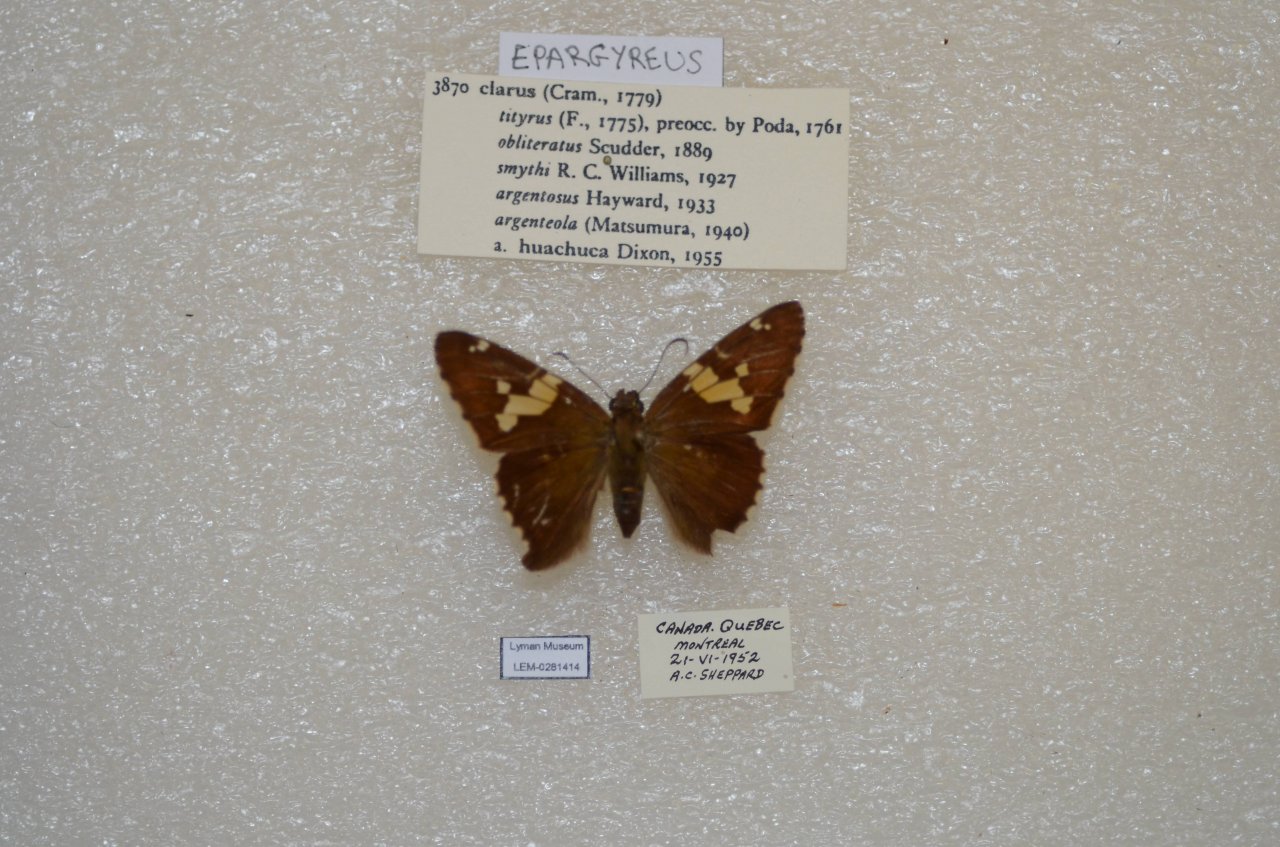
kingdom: Animalia
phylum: Arthropoda
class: Insecta
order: Lepidoptera
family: Hesperiidae
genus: Epargyreus
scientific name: Epargyreus clarus
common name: Silver-spotted Skipper
